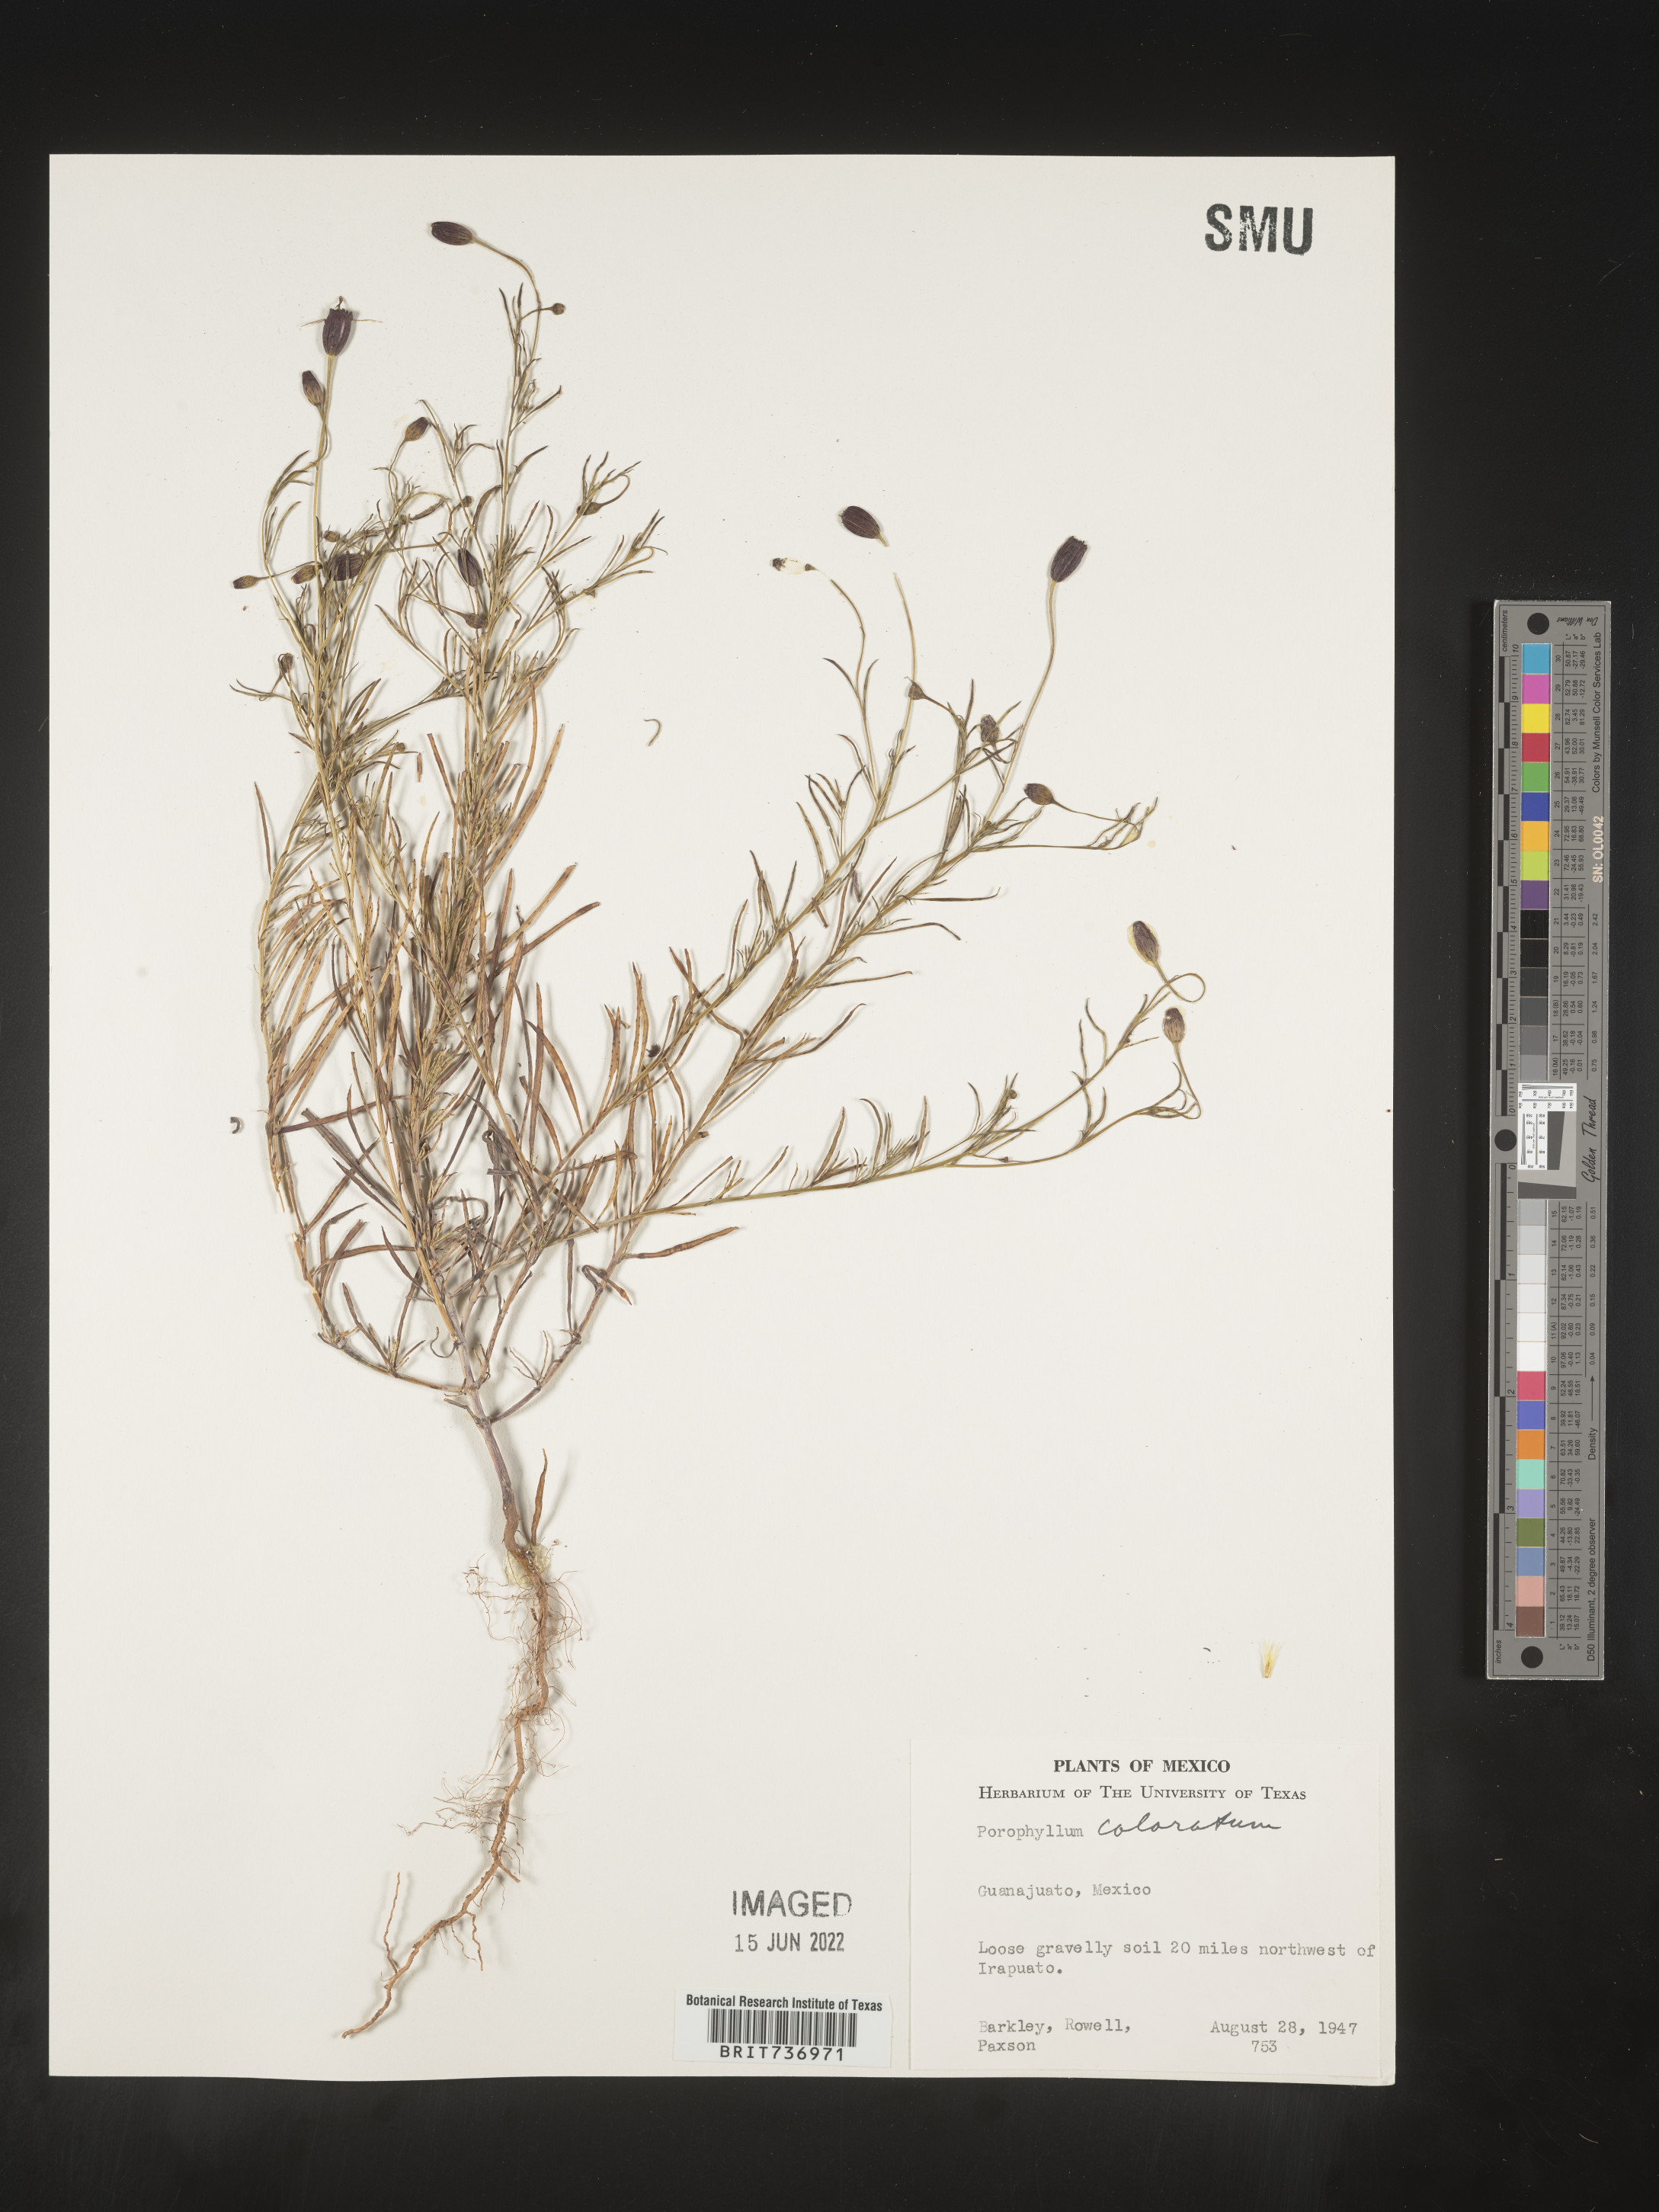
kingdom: Plantae
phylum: Tracheophyta
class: Magnoliopsida
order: Asterales
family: Asteraceae
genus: Porophyllum
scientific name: Porophyllum
